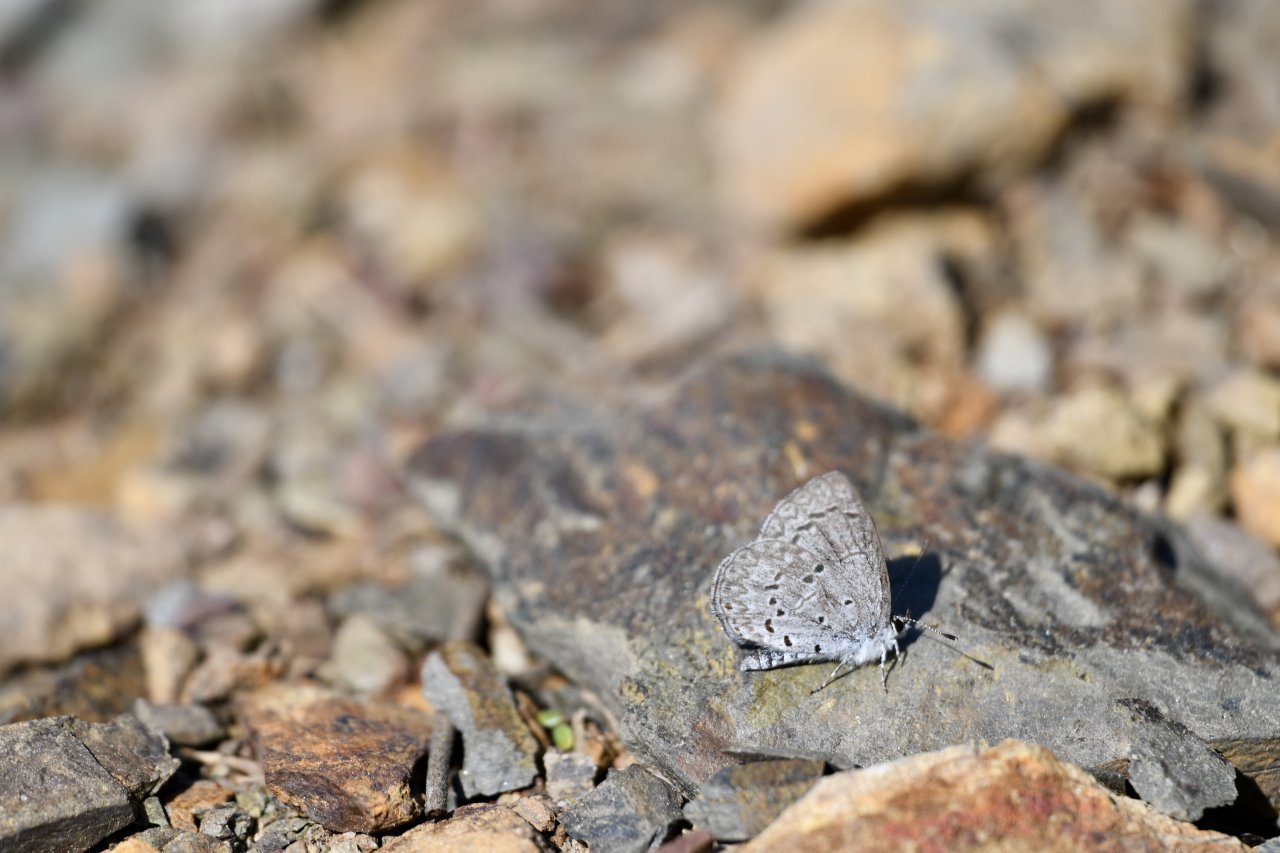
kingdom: Animalia
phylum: Arthropoda
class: Insecta
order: Lepidoptera
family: Lycaenidae
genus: Celastrina
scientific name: Celastrina ladon
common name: Spring Azure
